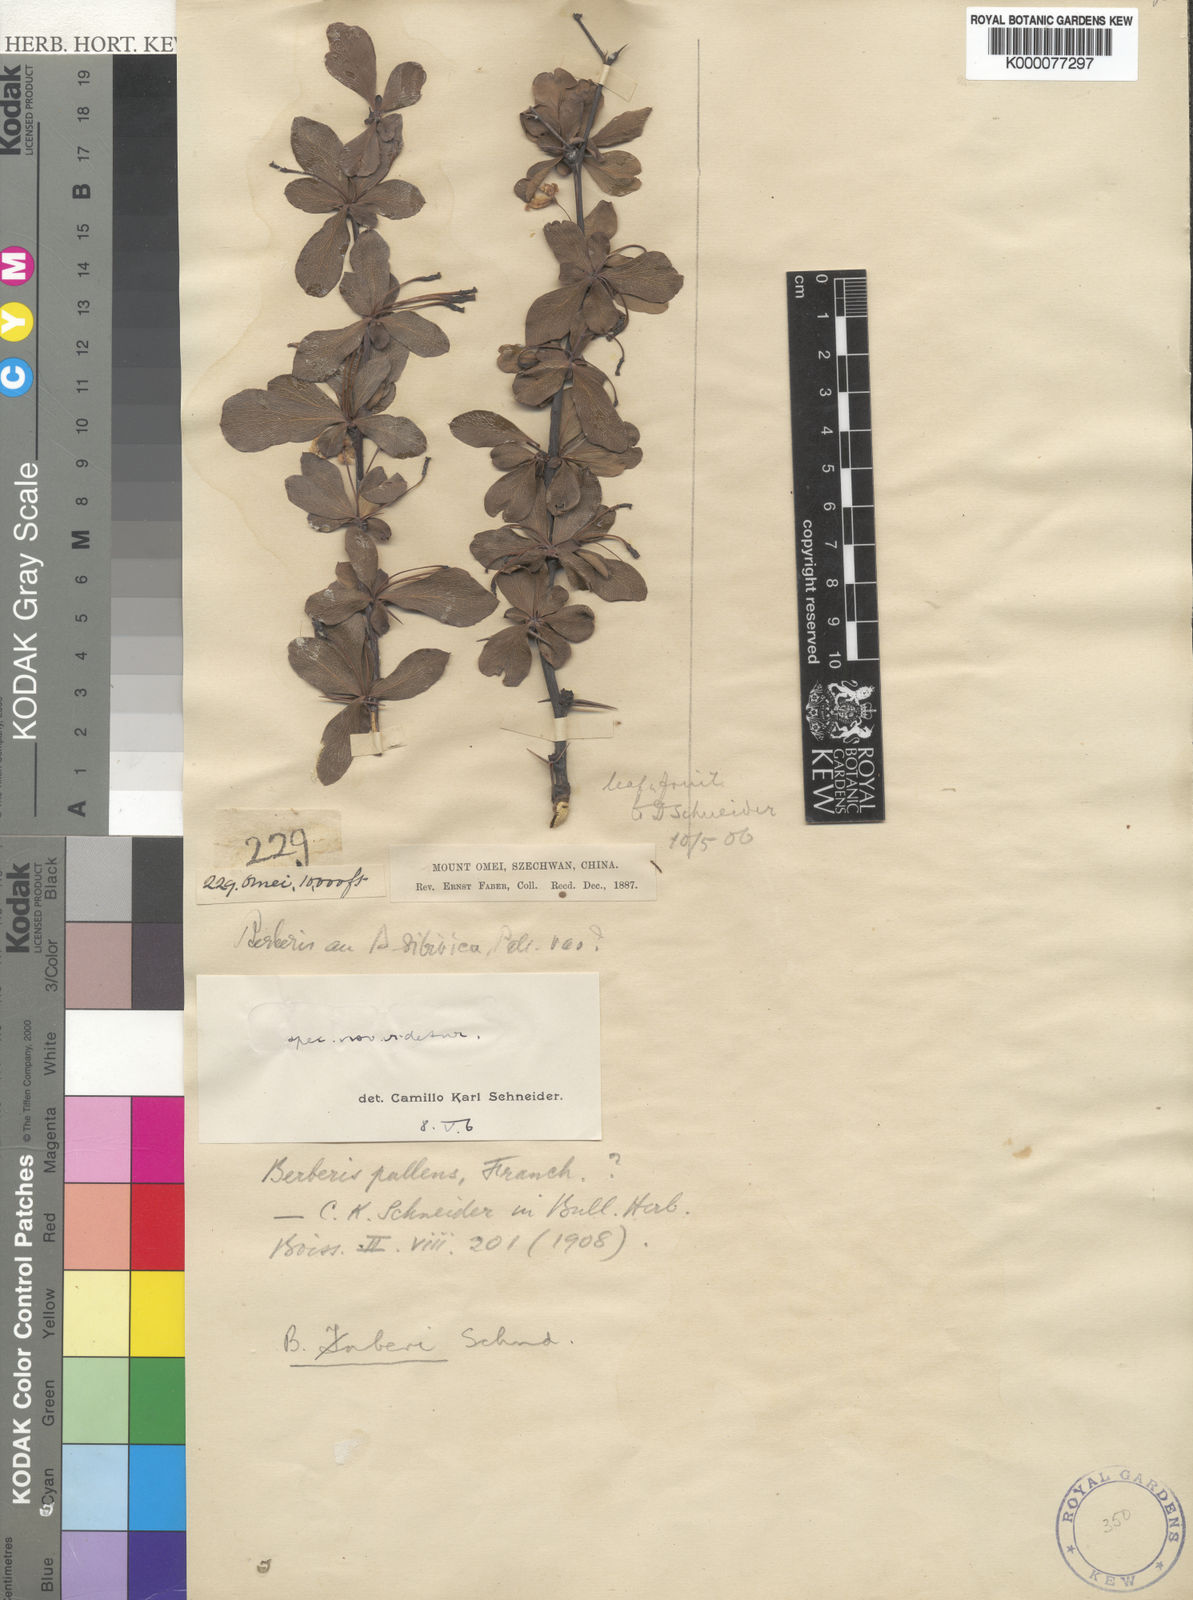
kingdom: Plantae
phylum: Tracheophyta
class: Magnoliopsida
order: Ranunculales
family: Berberidaceae
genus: Berberis
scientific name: Berberis aemulans
